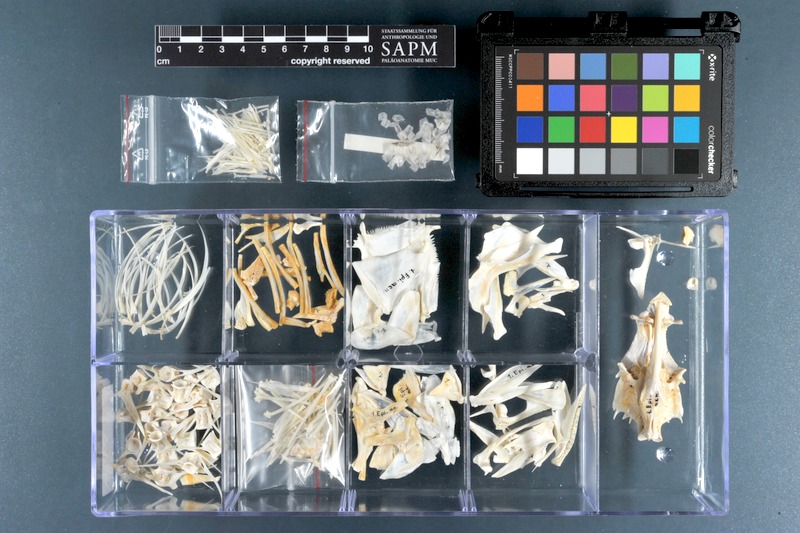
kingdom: Animalia
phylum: Chordata
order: Perciformes
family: Serranidae
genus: Epinephelus
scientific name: Epinephelus aeneus
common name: White grouper
